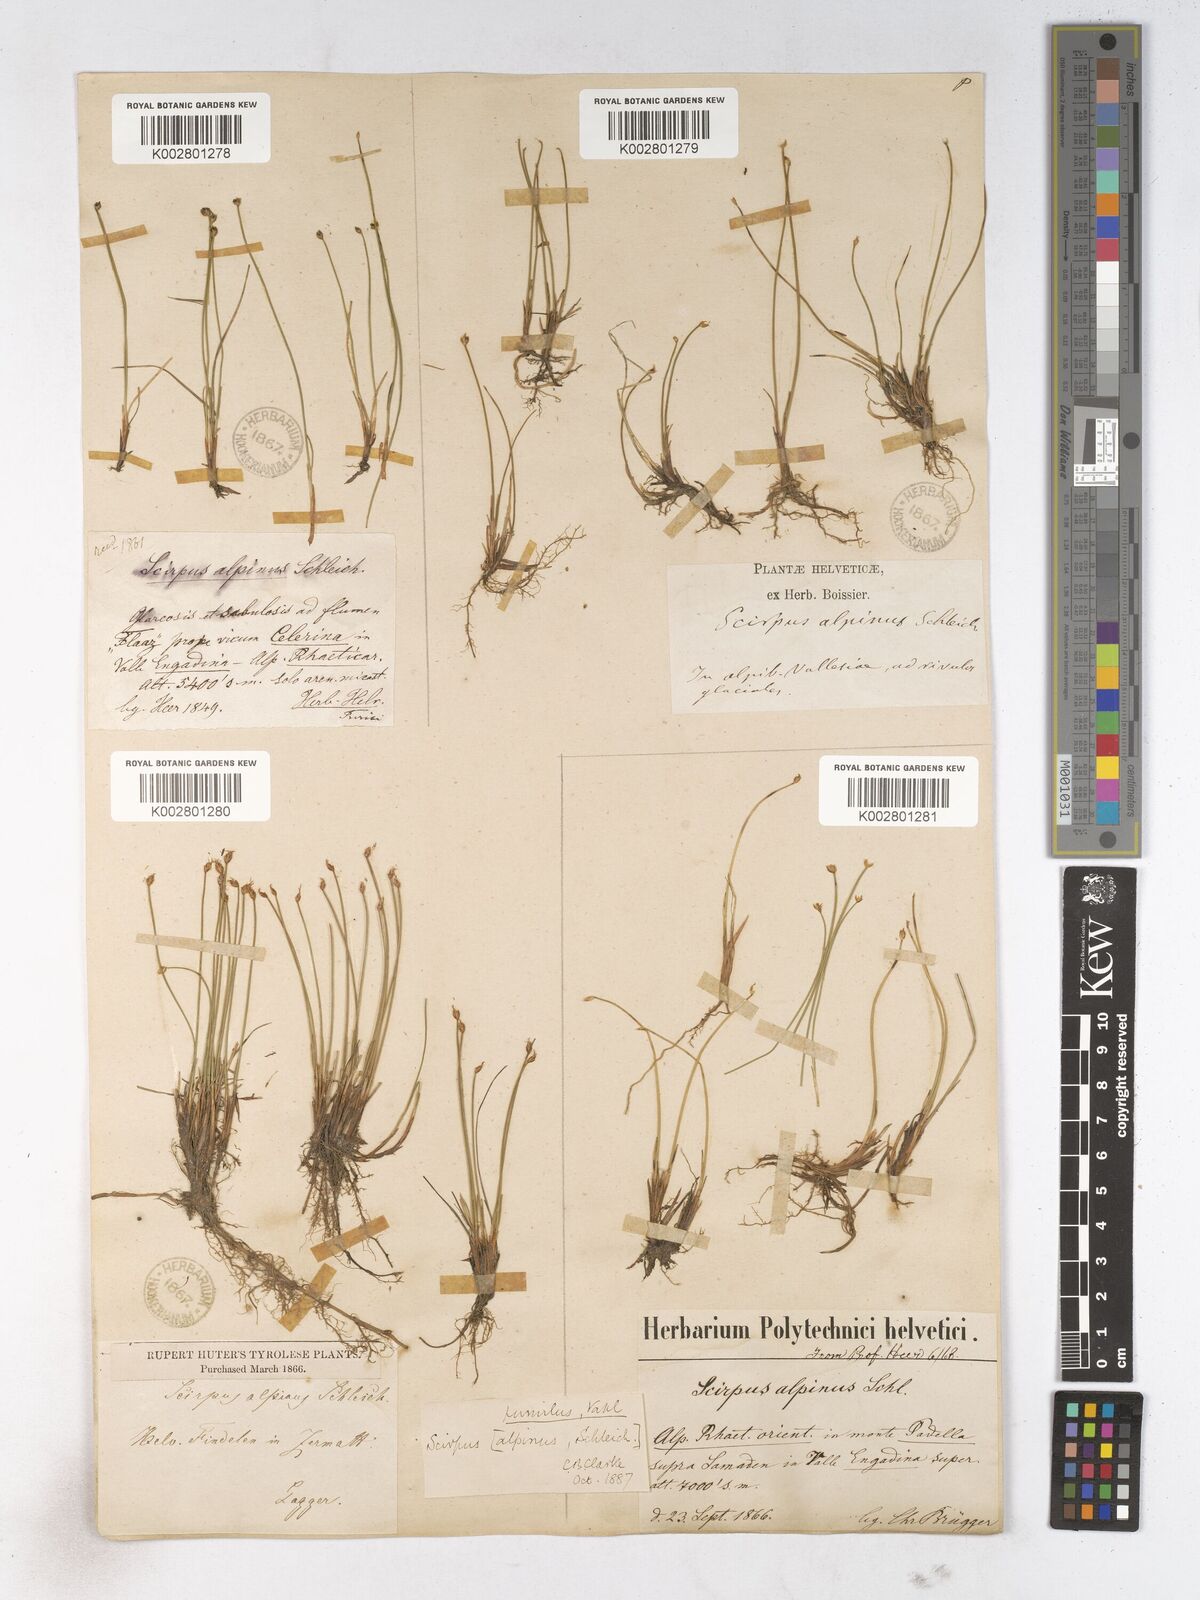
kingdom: Plantae
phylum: Tracheophyta
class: Liliopsida
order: Poales
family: Cyperaceae
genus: Trichophorum
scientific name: Trichophorum pumilum
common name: Rolland's bulrush
